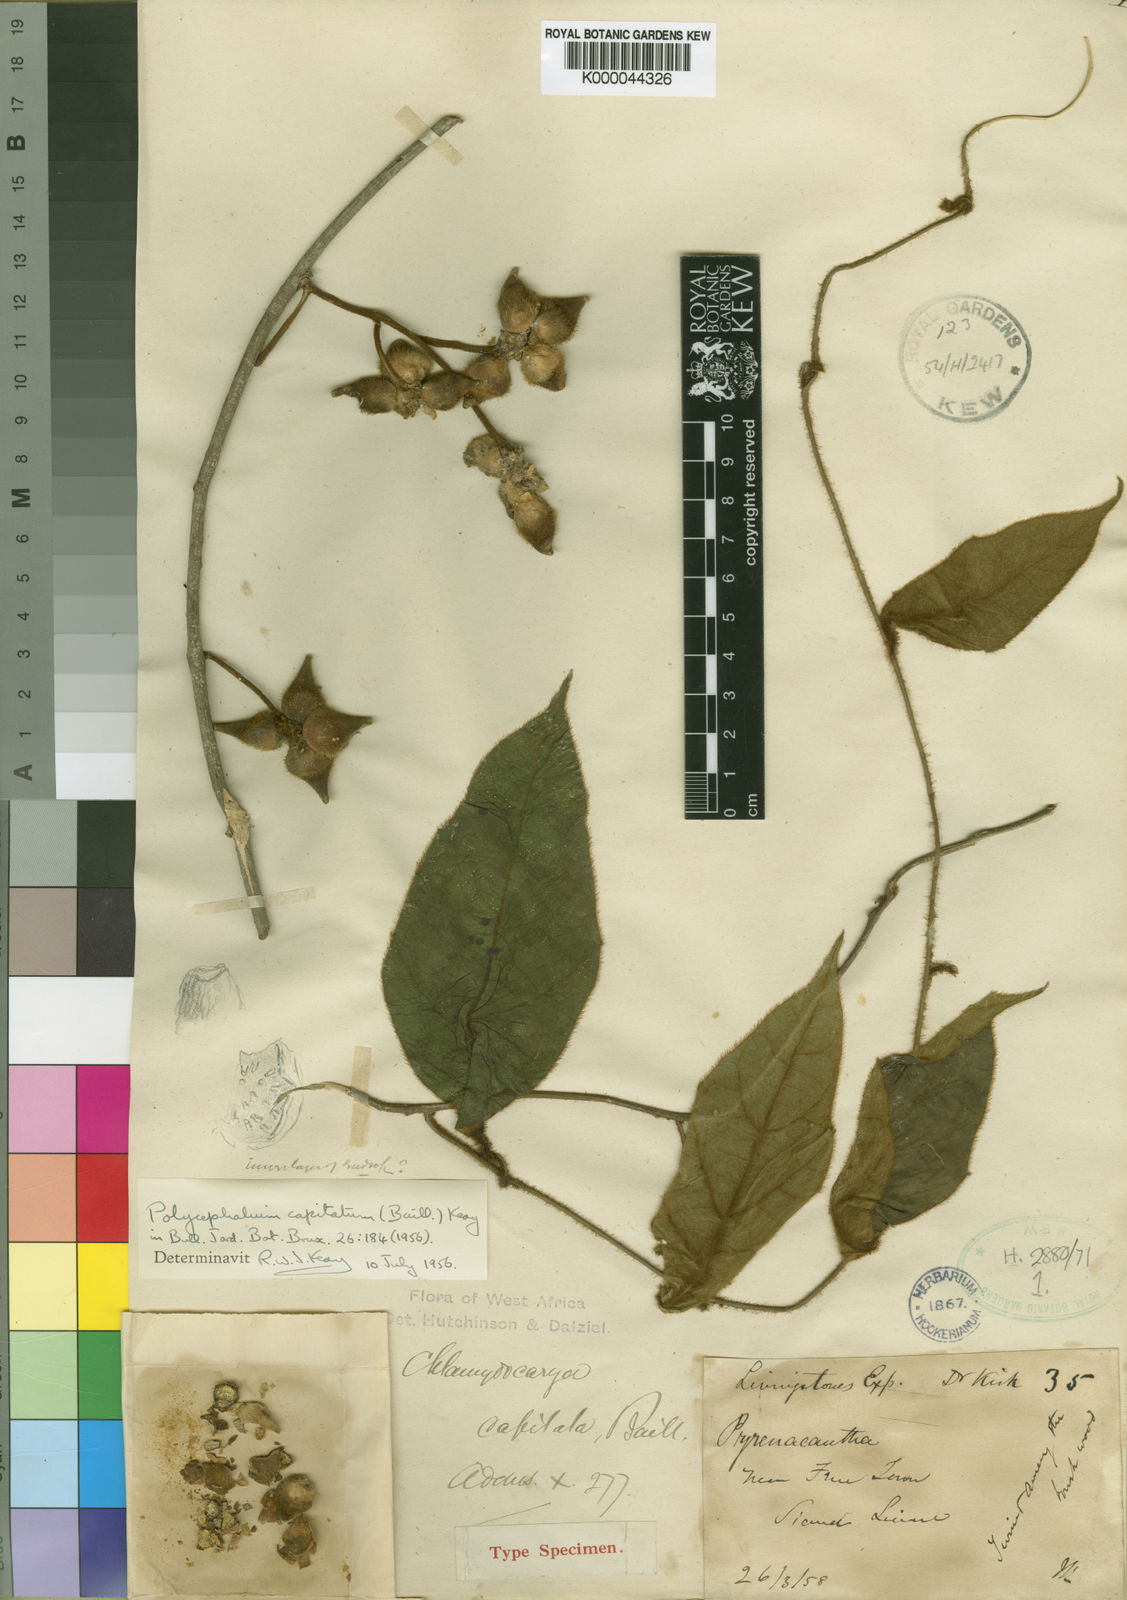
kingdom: Plantae
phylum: Tracheophyta
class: Magnoliopsida
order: Icacinales
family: Icacinaceae
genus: Pyrenacantha
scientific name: Pyrenacantha manchesteriana
